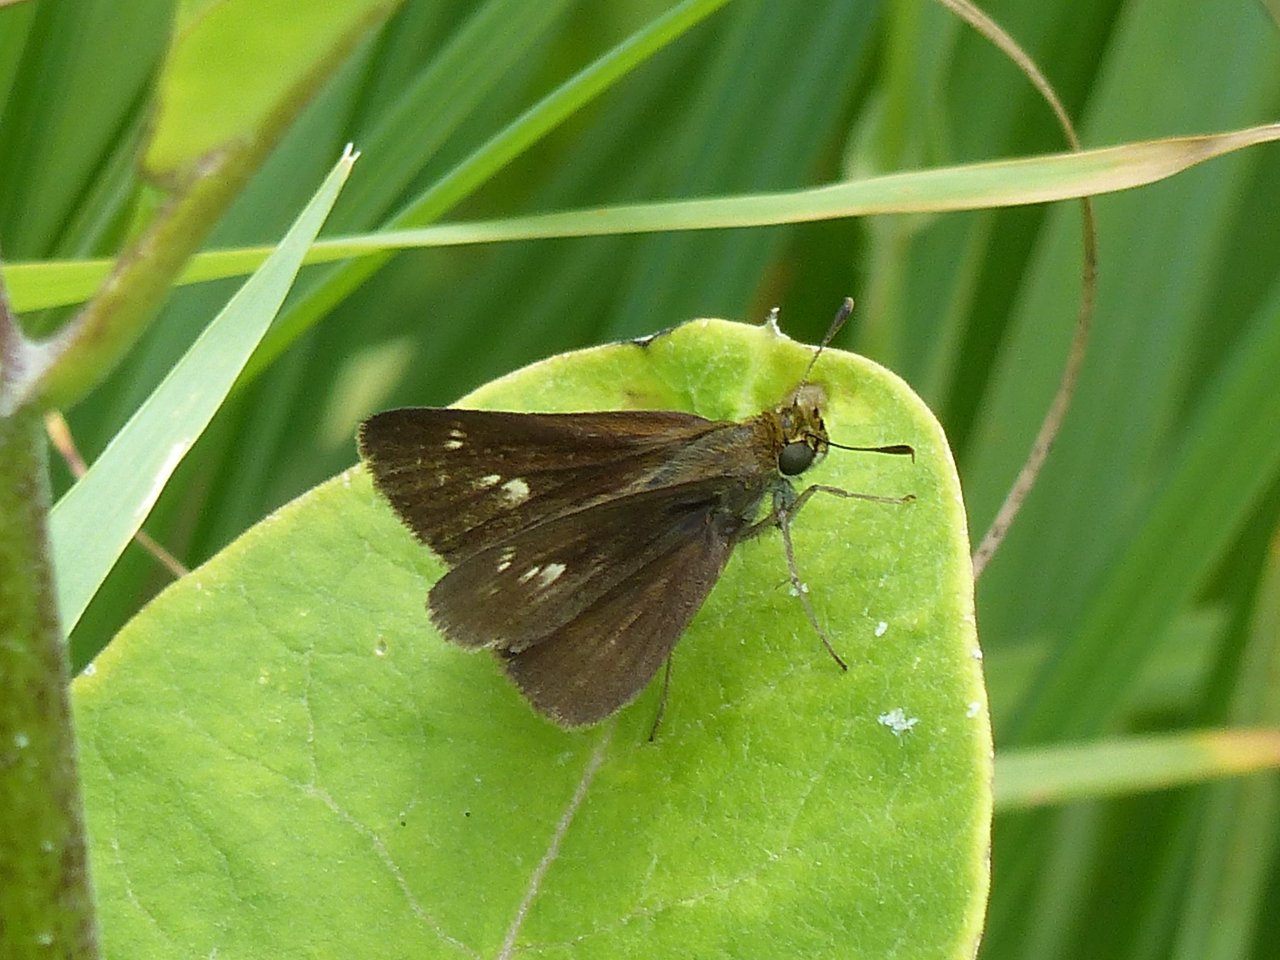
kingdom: Animalia
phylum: Arthropoda
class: Insecta
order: Lepidoptera
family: Hesperiidae
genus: Euphyes
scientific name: Euphyes vestris
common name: Dun Skipper
